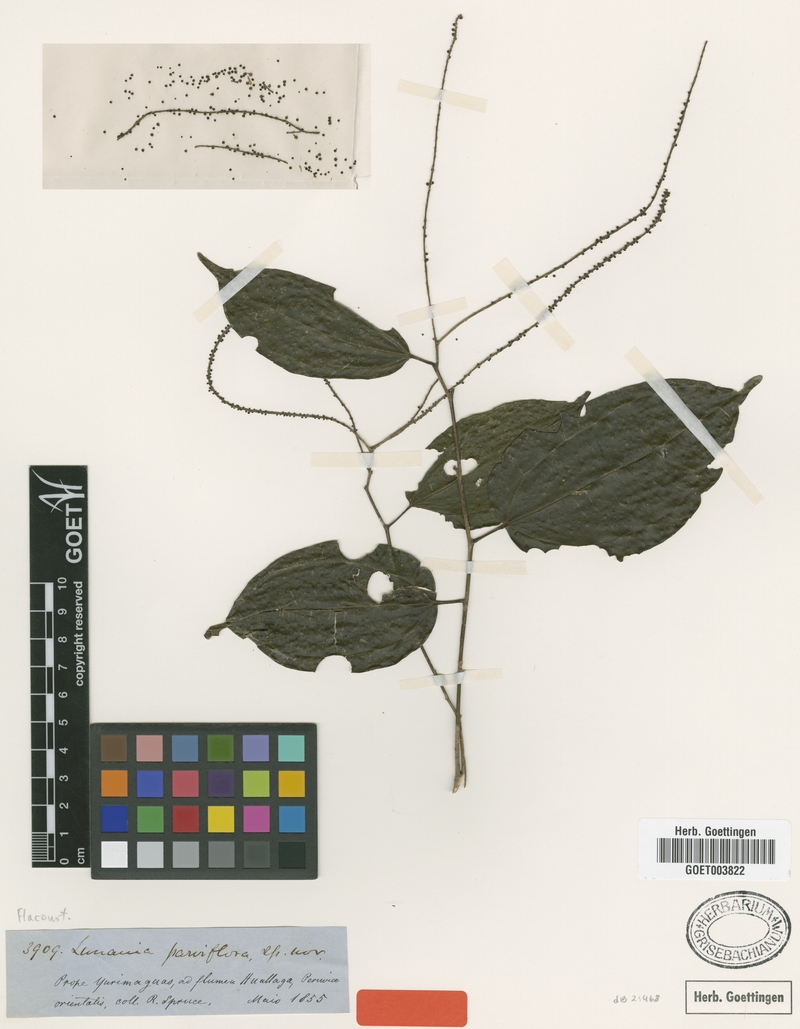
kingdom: Plantae
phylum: Tracheophyta
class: Magnoliopsida
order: Malpighiales
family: Salicaceae
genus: Lunania
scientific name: Lunania parviflora
